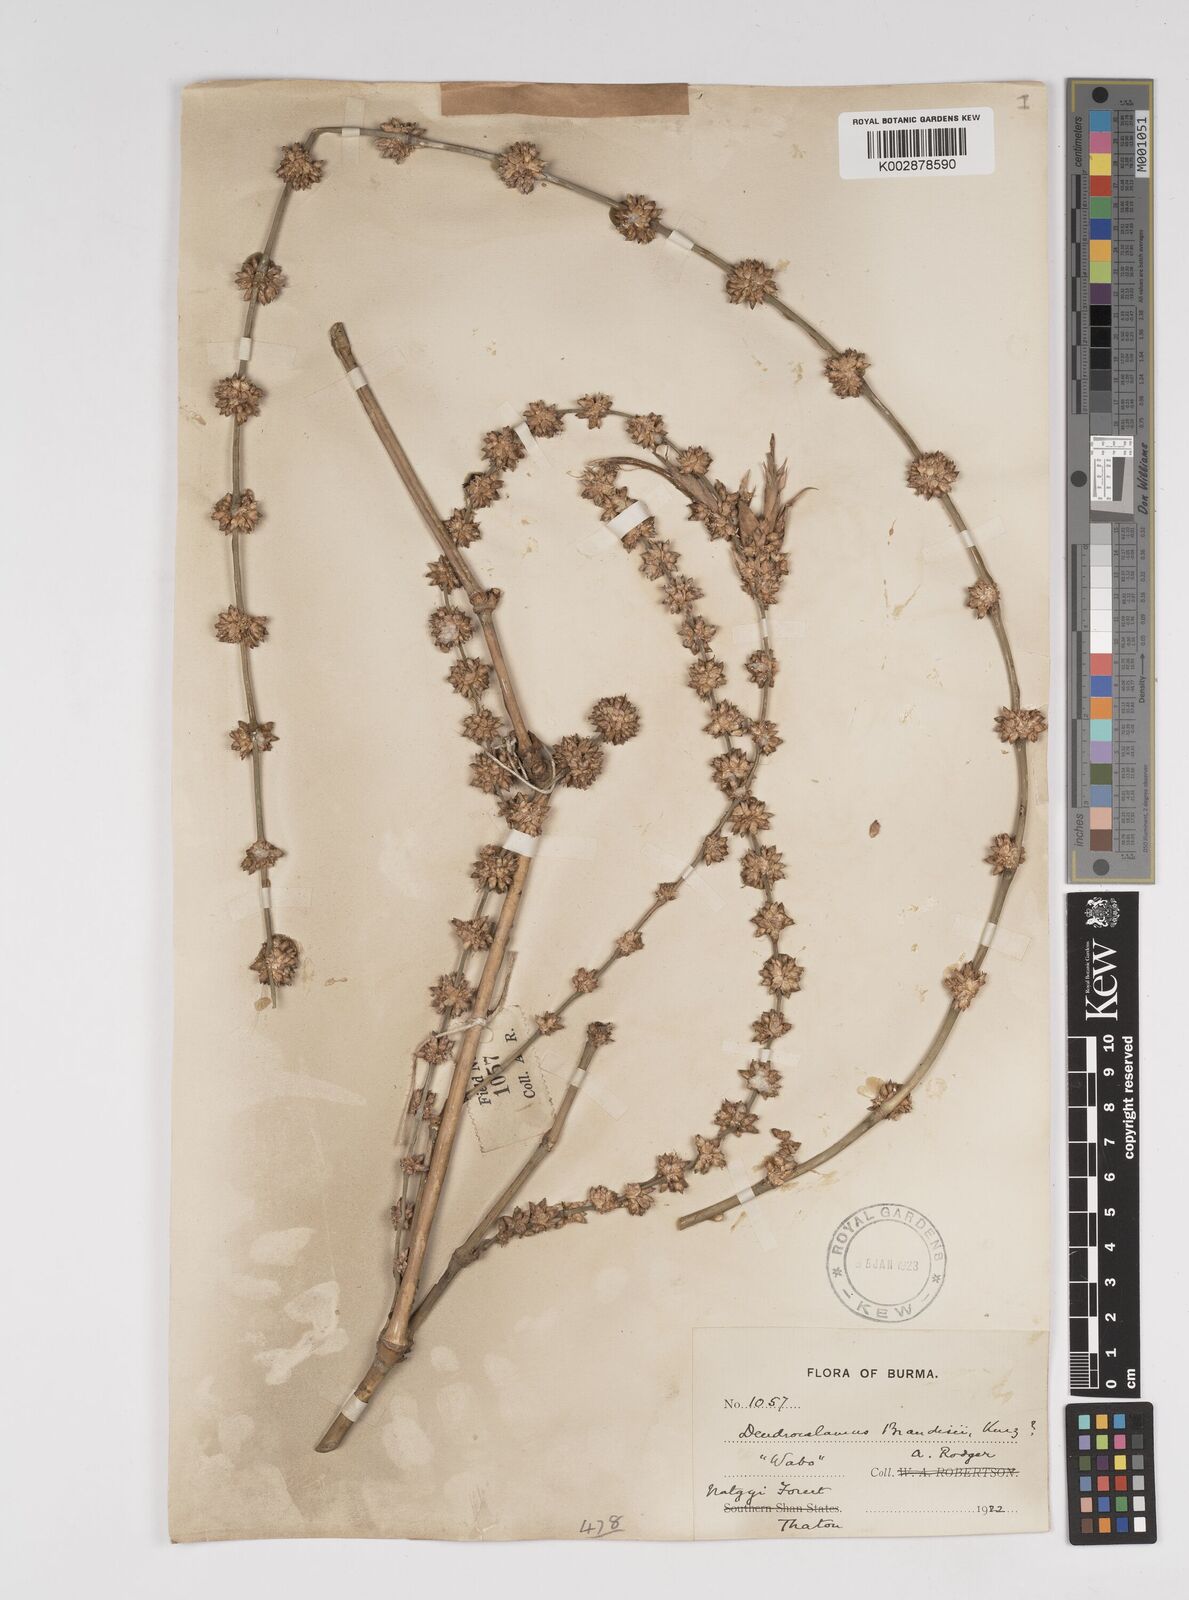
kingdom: Plantae
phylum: Tracheophyta
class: Liliopsida
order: Poales
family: Poaceae
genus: Dendrocalamus
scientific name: Dendrocalamus brandisii
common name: Velvetleaf bamboo
